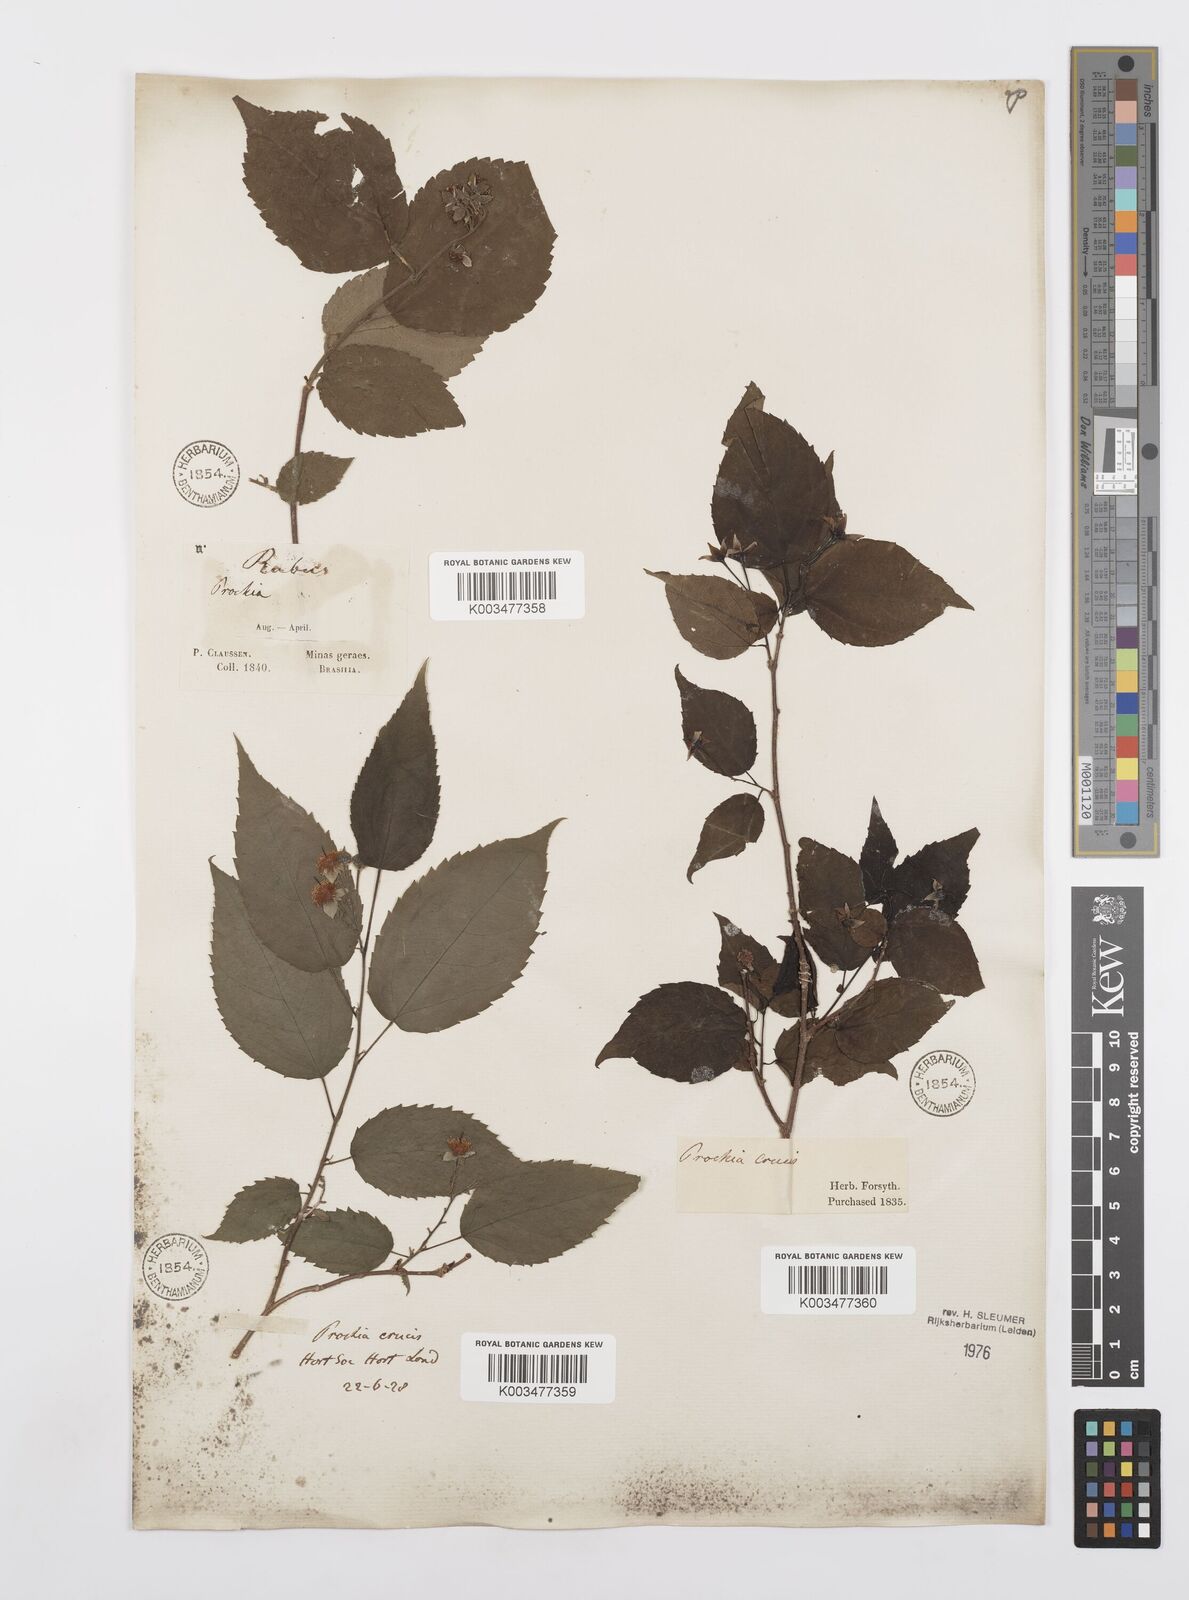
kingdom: Plantae
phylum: Tracheophyta
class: Magnoliopsida
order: Malpighiales
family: Salicaceae
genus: Prockia
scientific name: Prockia crucis
